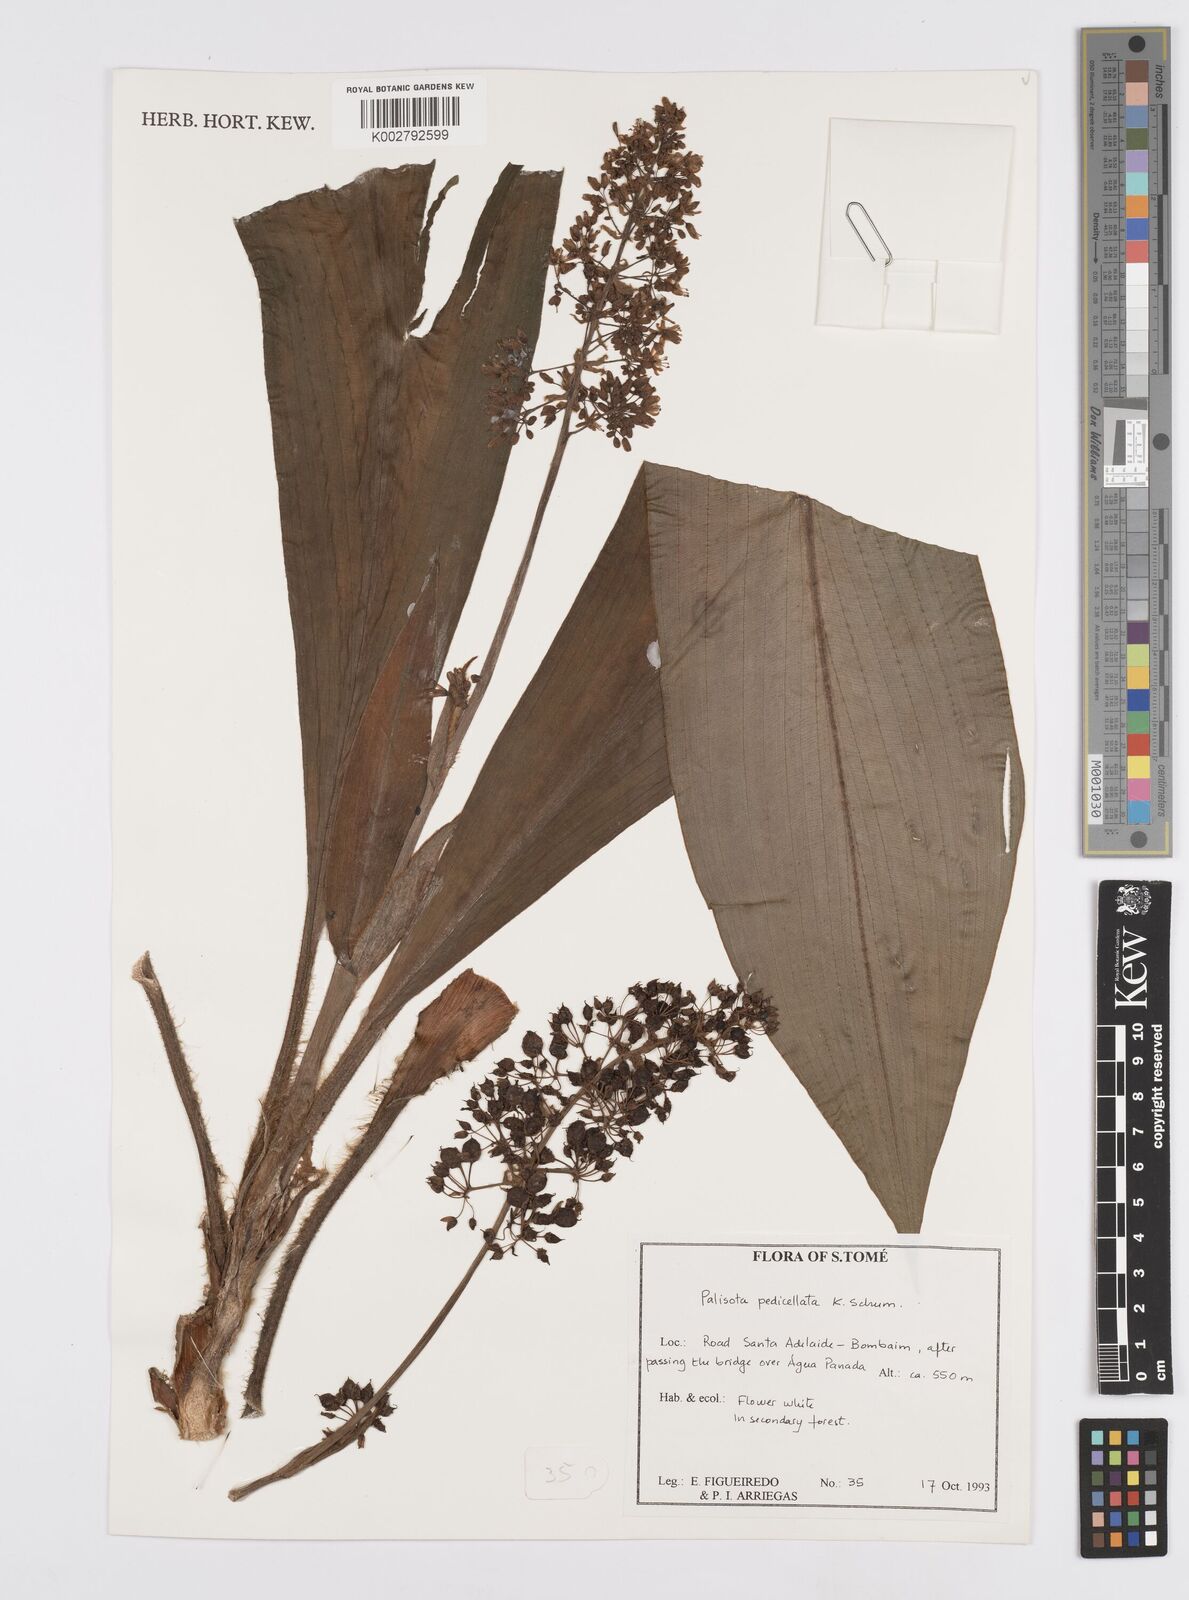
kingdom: Plantae
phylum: Tracheophyta
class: Liliopsida
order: Commelinales
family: Commelinaceae
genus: Palisota
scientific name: Palisota pedicellata
